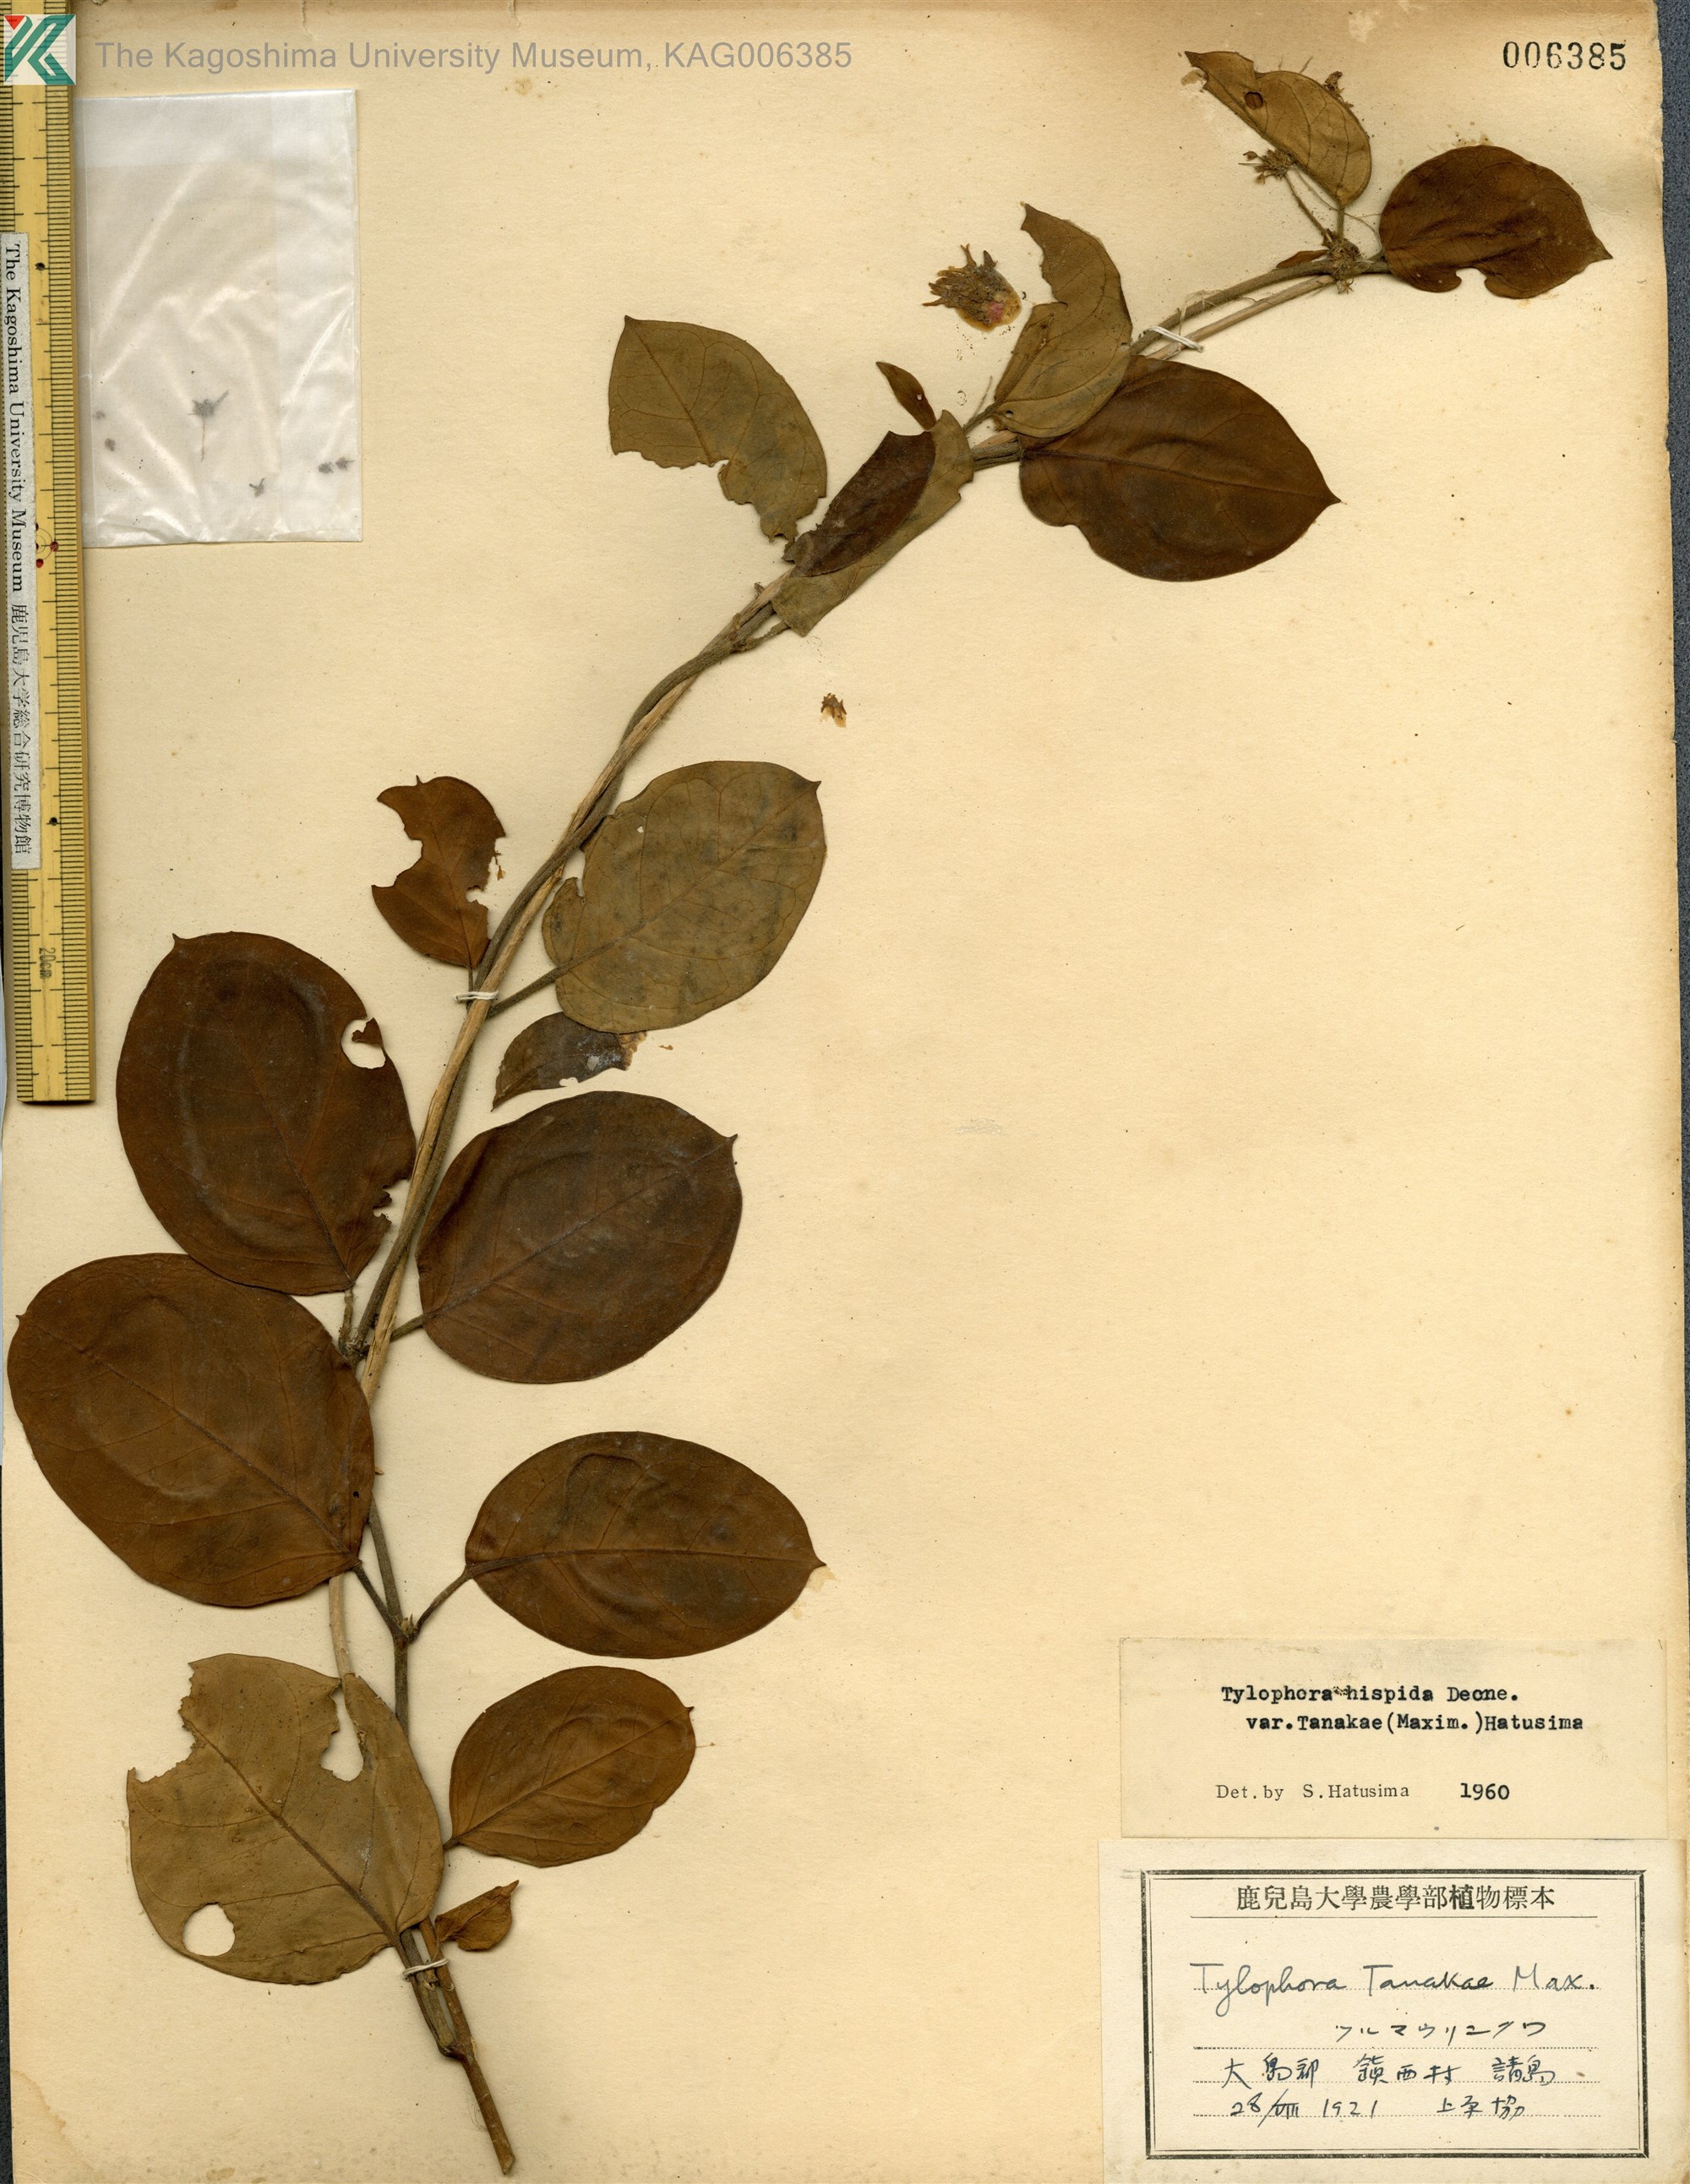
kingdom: Plantae
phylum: Tracheophyta
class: Magnoliopsida
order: Gentianales
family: Apocynaceae
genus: Vincetoxicum
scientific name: Vincetoxicum Tylophora tanakae
